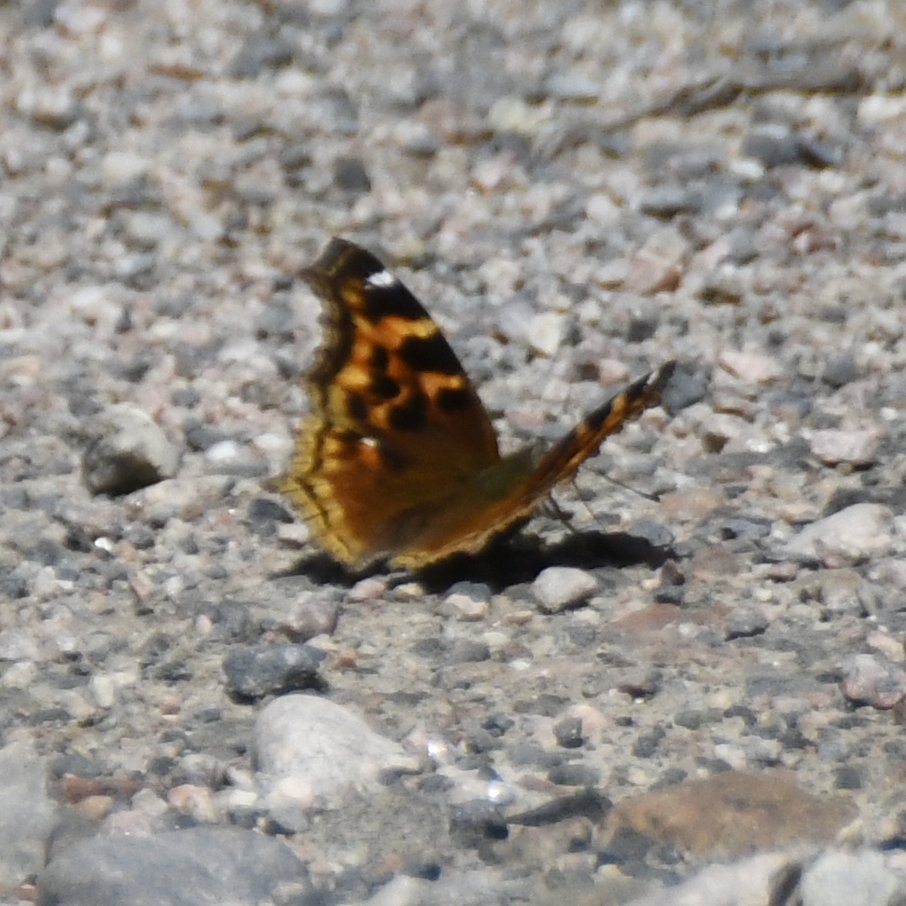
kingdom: Animalia
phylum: Arthropoda
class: Insecta
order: Lepidoptera
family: Nymphalidae
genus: Polygonia
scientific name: Polygonia vaualbum
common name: Compton Tortoiseshell
